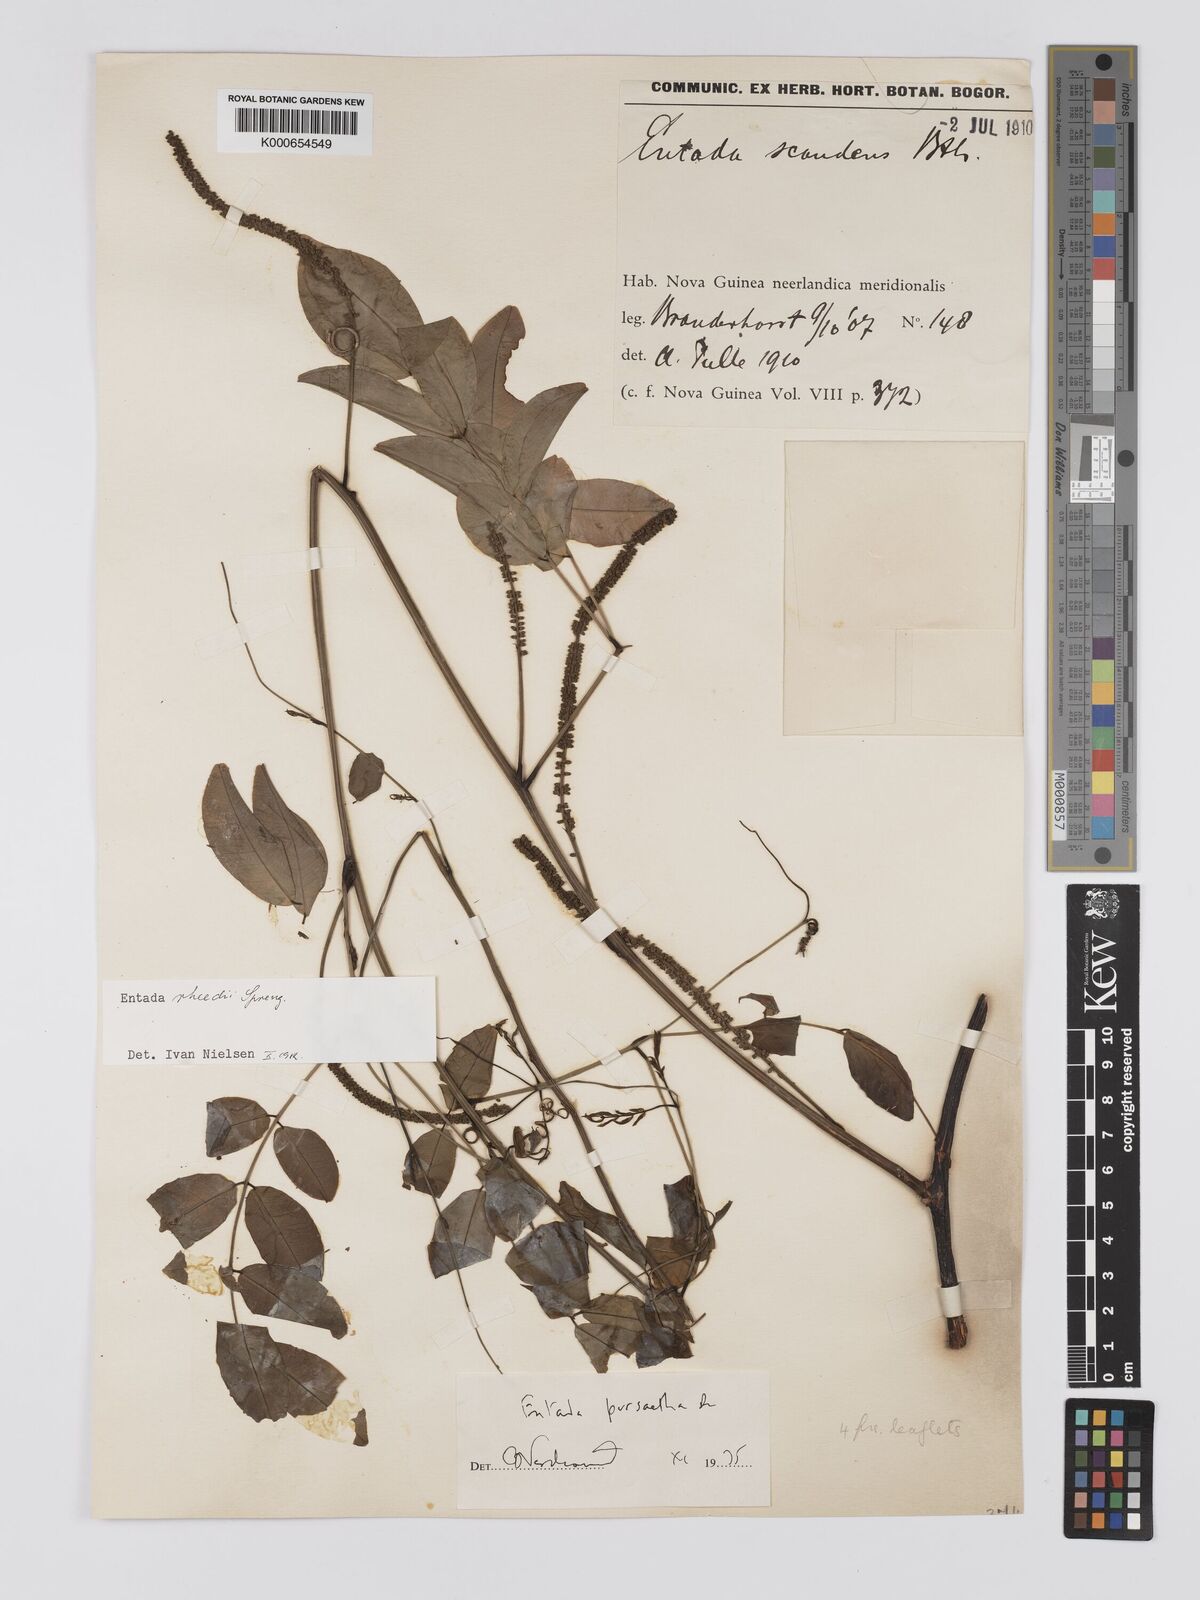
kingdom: Plantae
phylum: Tracheophyta
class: Magnoliopsida
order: Fabales
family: Fabaceae
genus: Entada
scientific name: Entada rheedei
